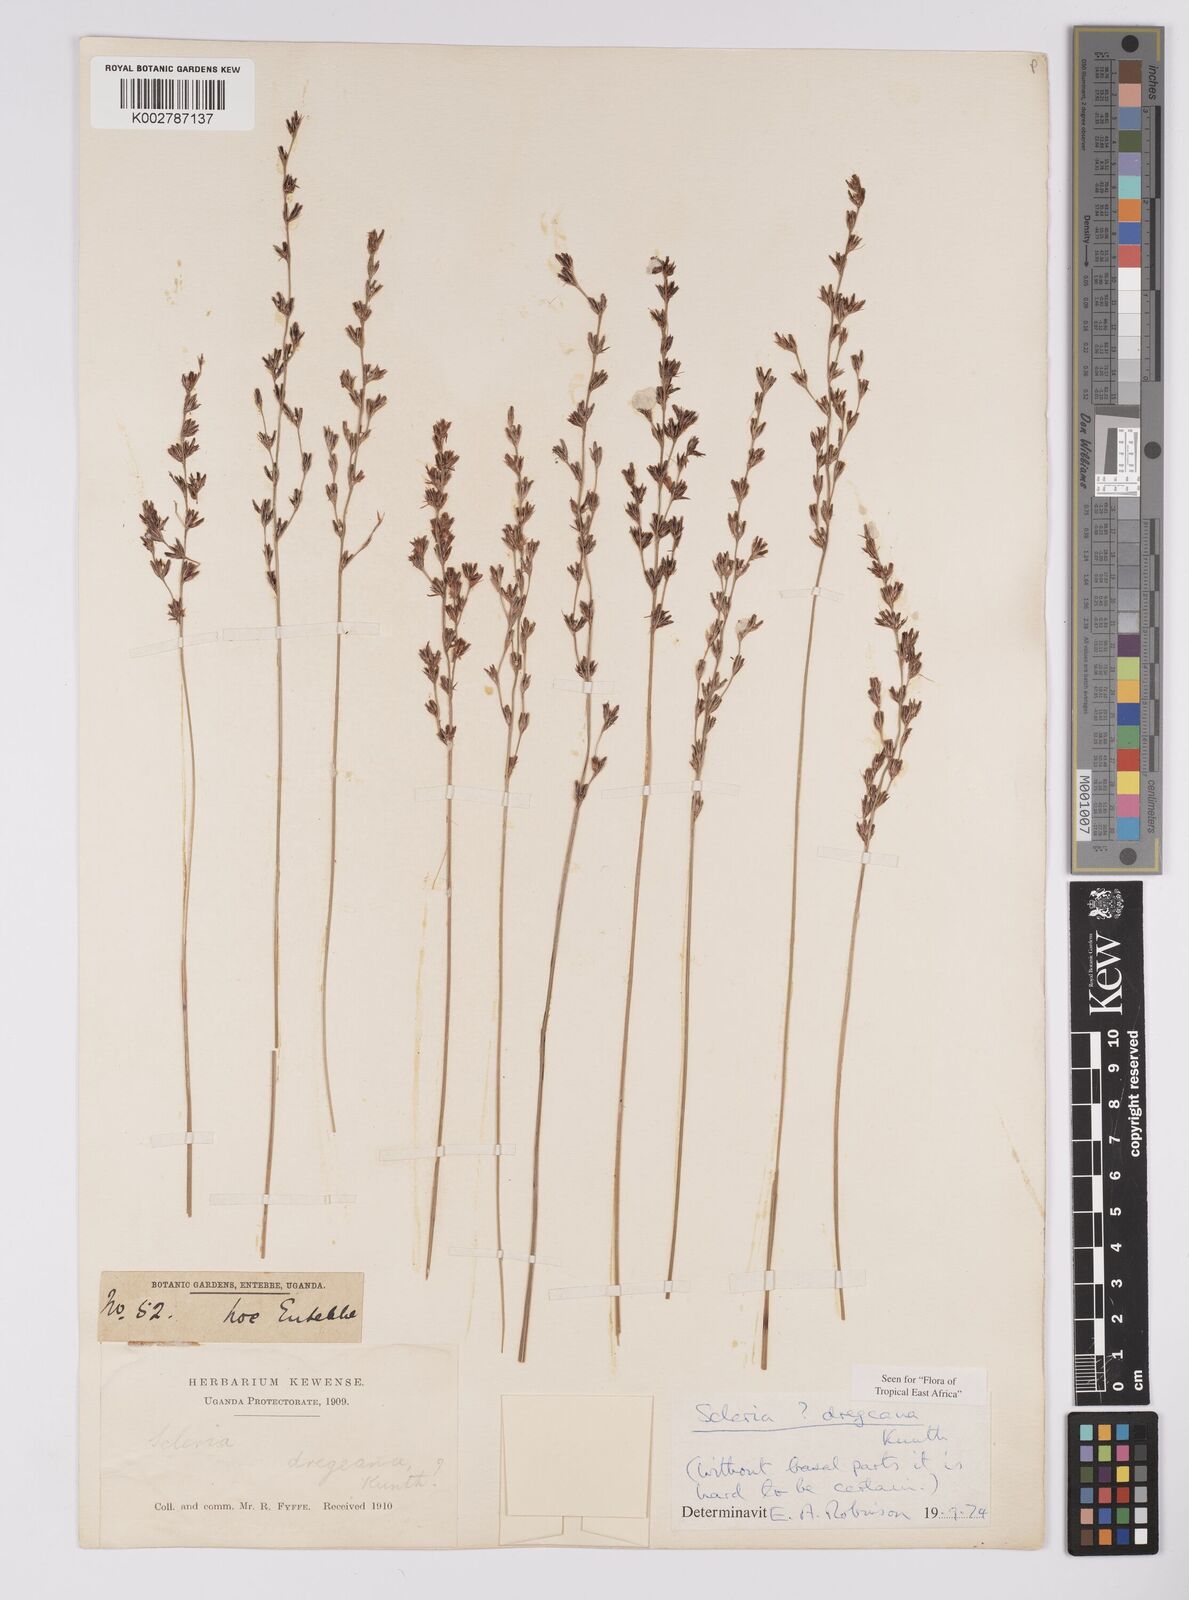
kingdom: Plantae
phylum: Tracheophyta
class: Liliopsida
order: Poales
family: Cyperaceae
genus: Scleria
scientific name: Scleria dregeana
